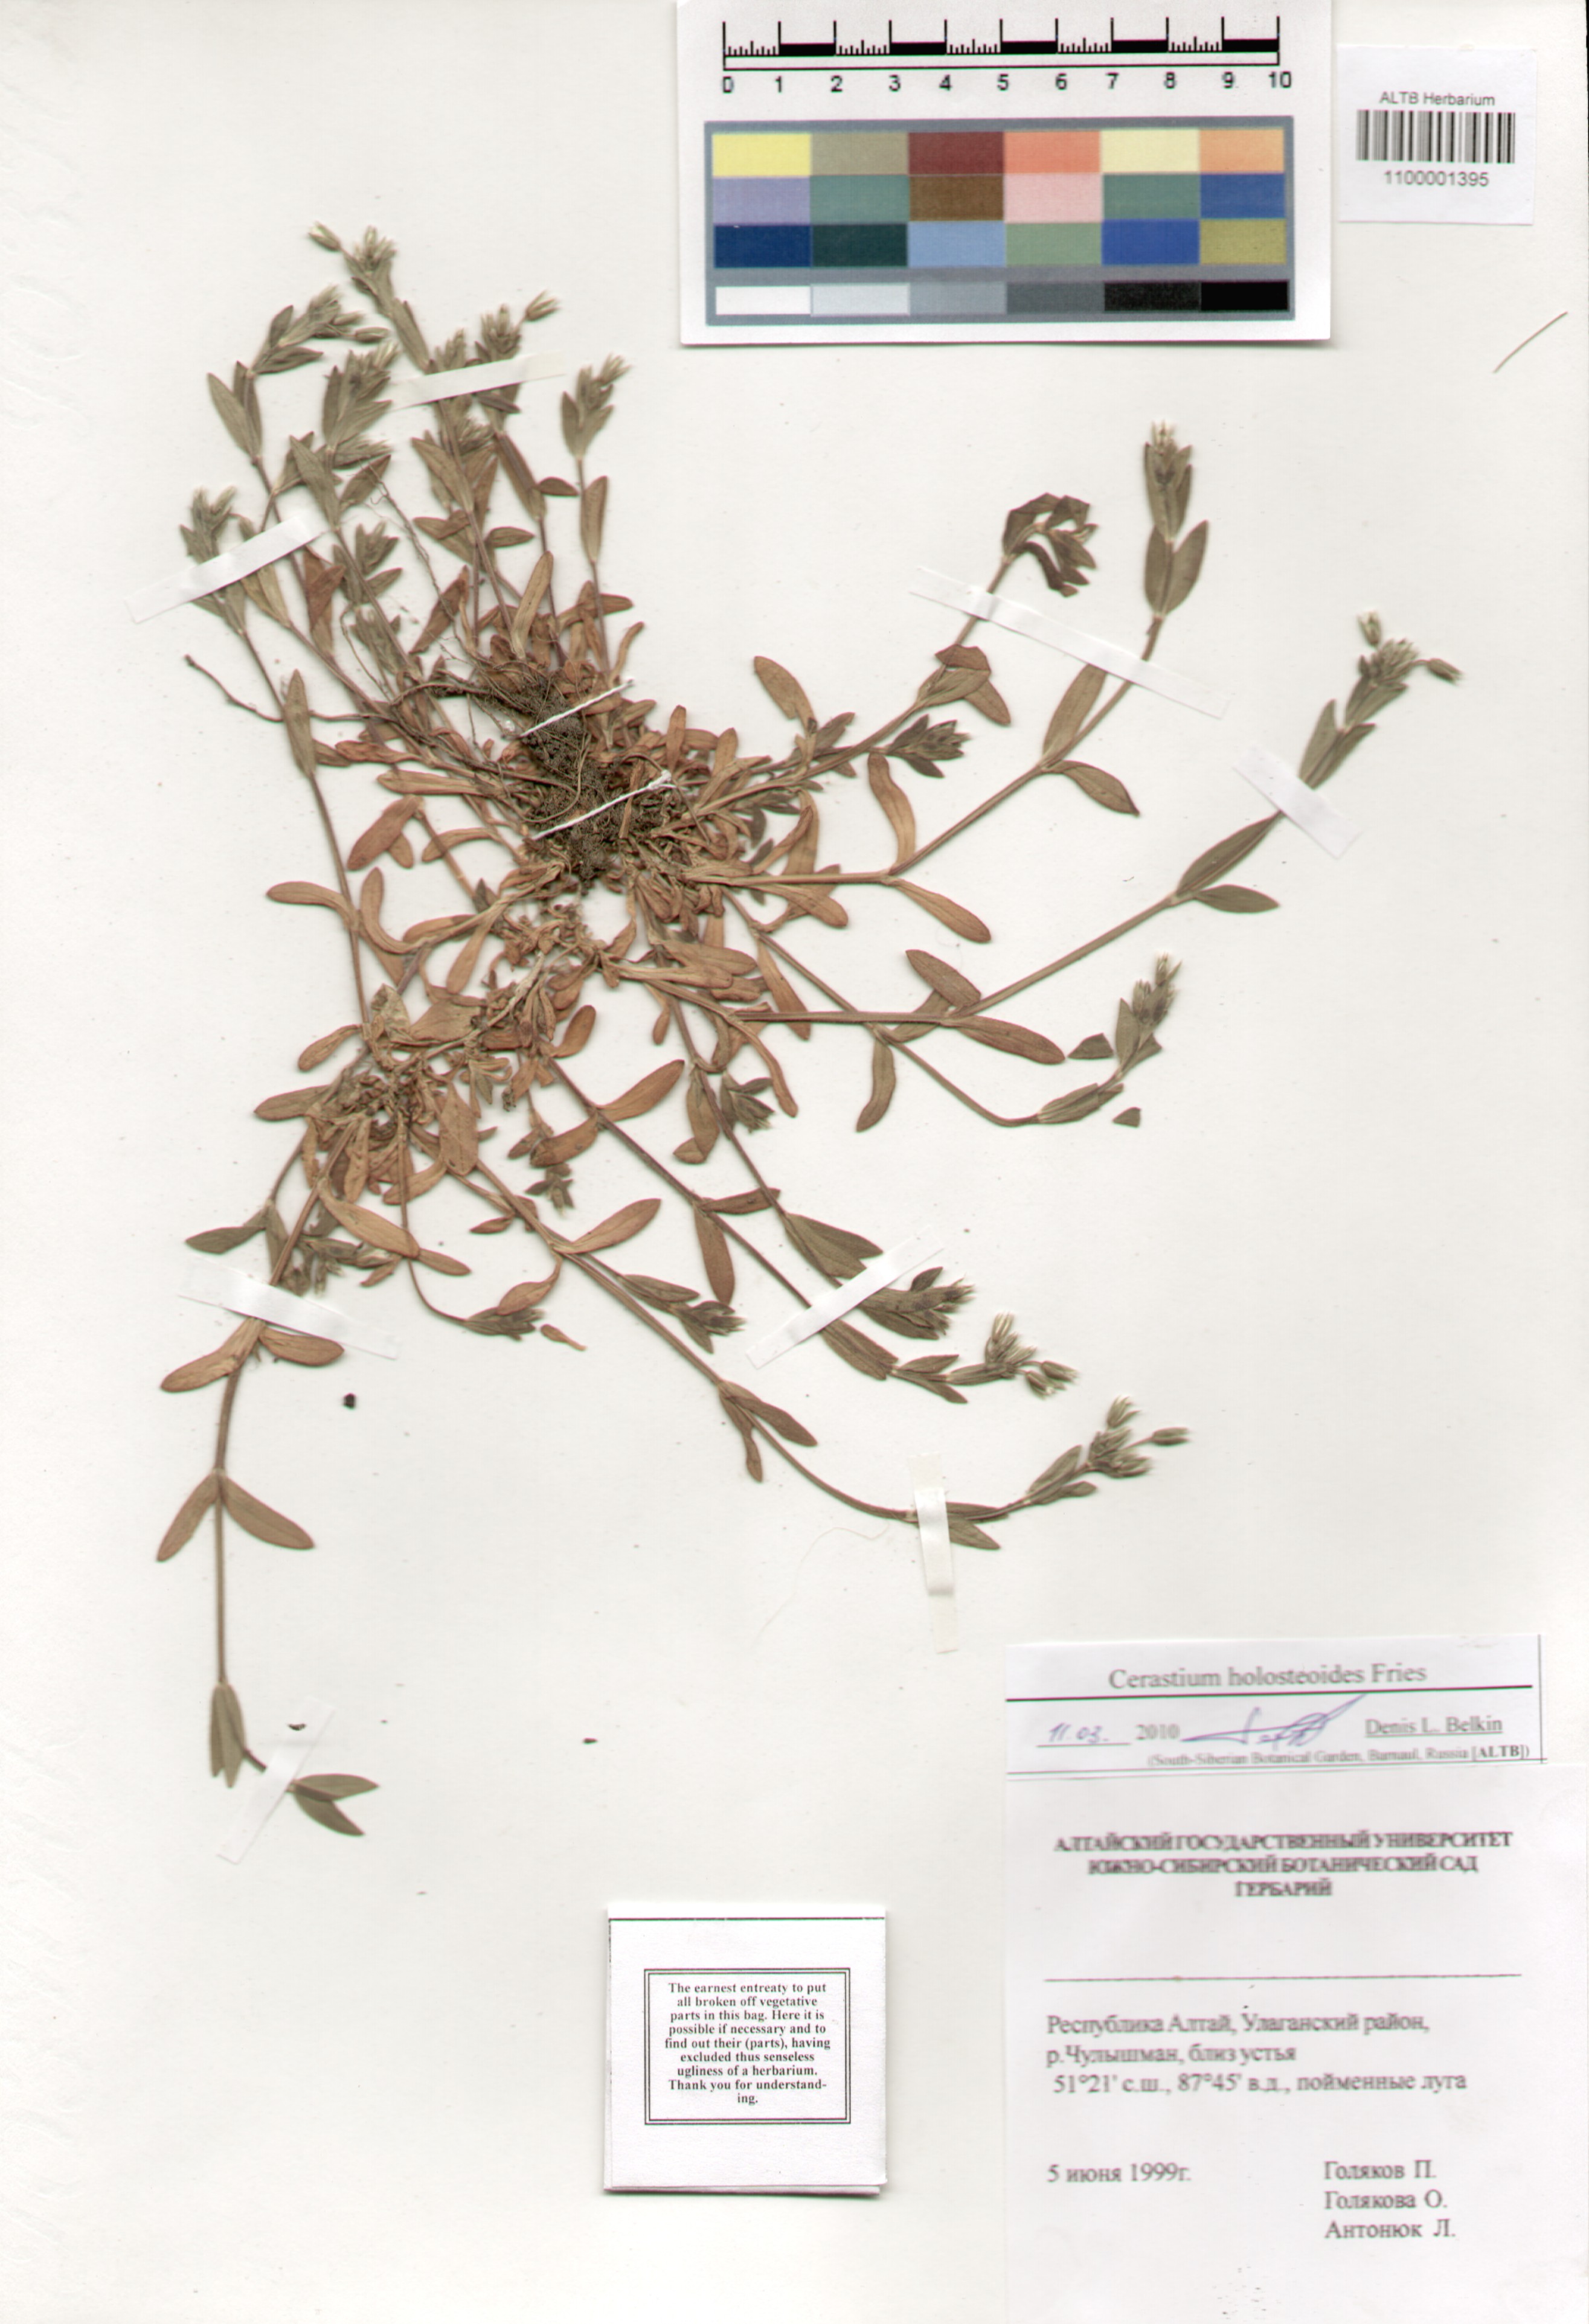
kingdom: Plantae
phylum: Tracheophyta
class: Magnoliopsida
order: Caryophyllales
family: Caryophyllaceae
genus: Cerastium
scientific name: Cerastium holosteoides
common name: Big chickweed
